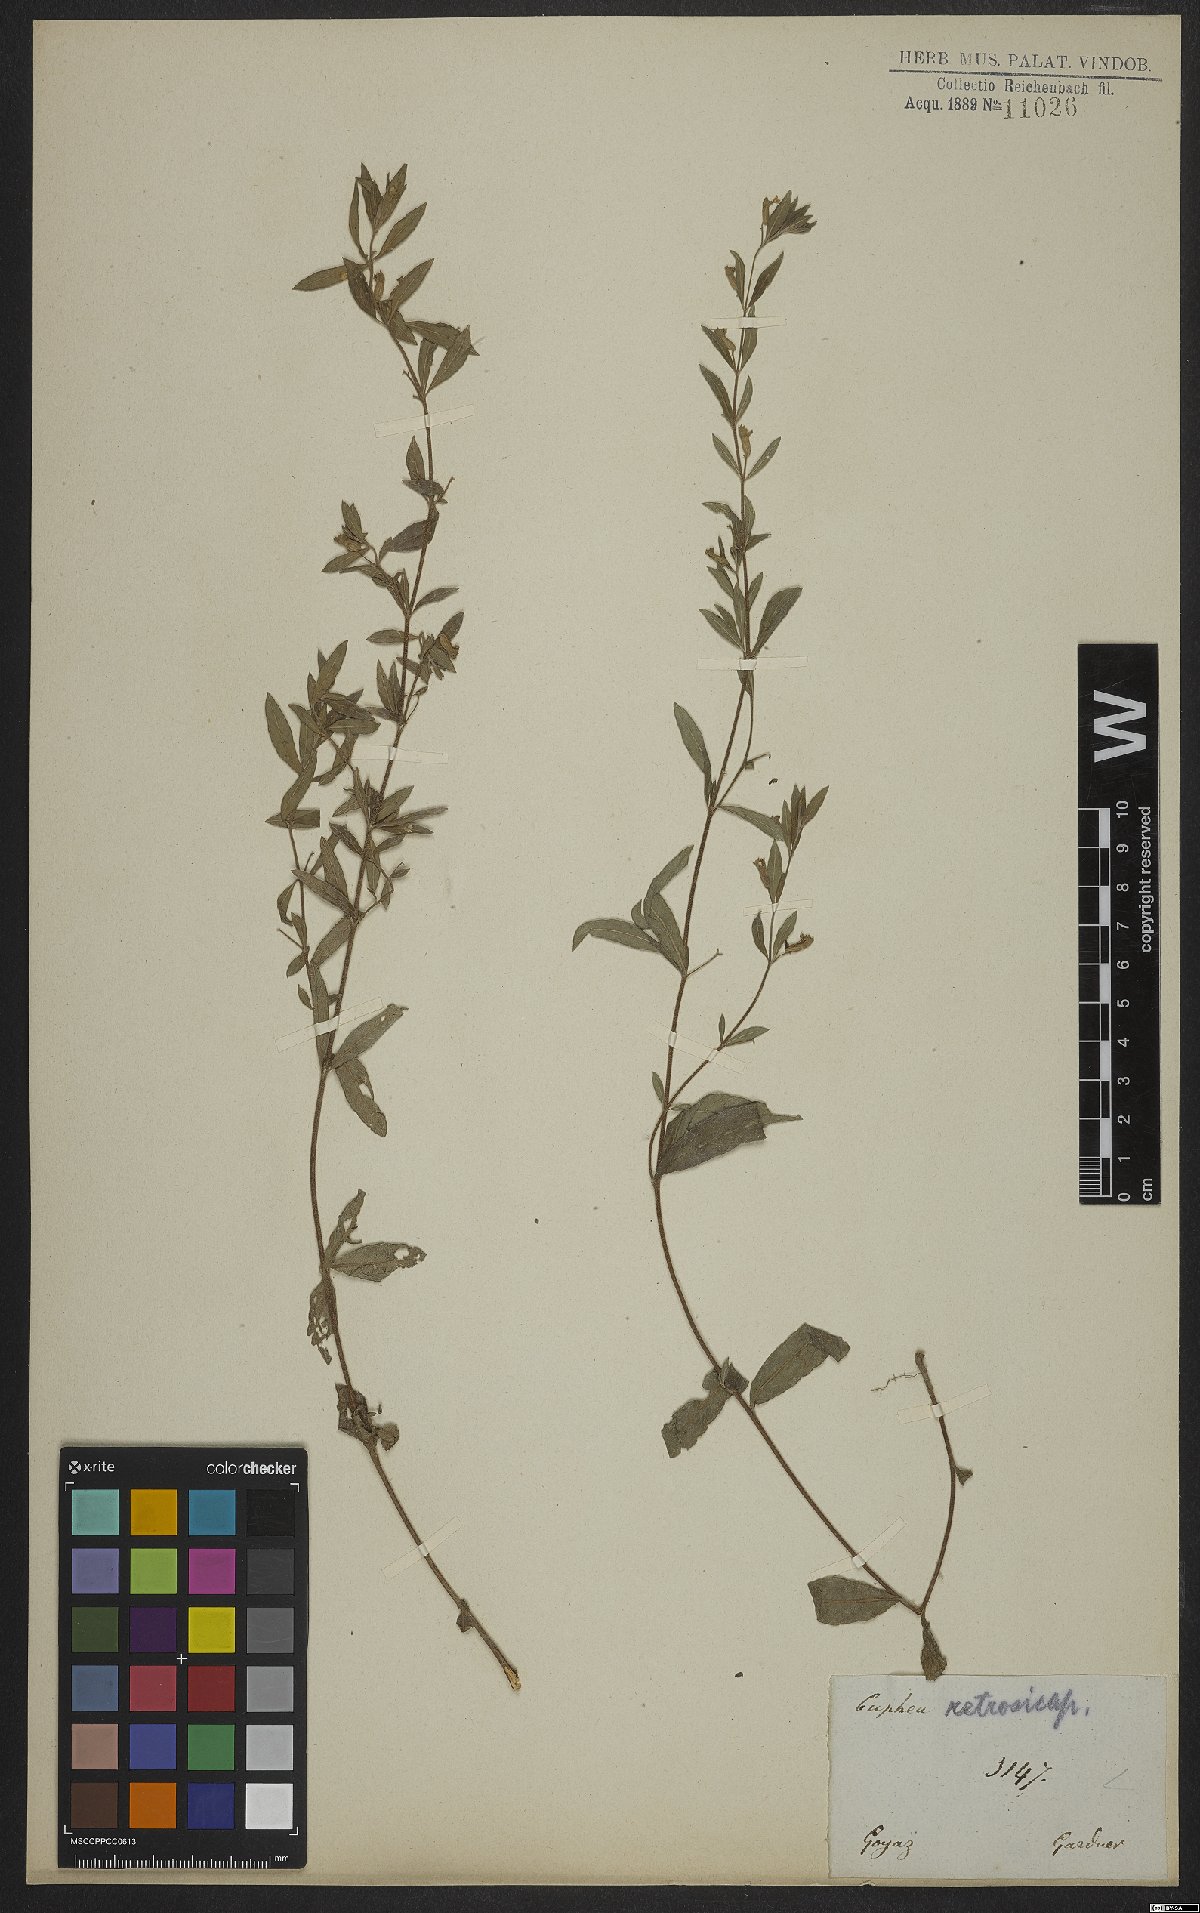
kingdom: Plantae
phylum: Tracheophyta
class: Magnoliopsida
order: Myrtales
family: Lythraceae
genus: Cuphea
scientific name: Cuphea retrorsicapilla
